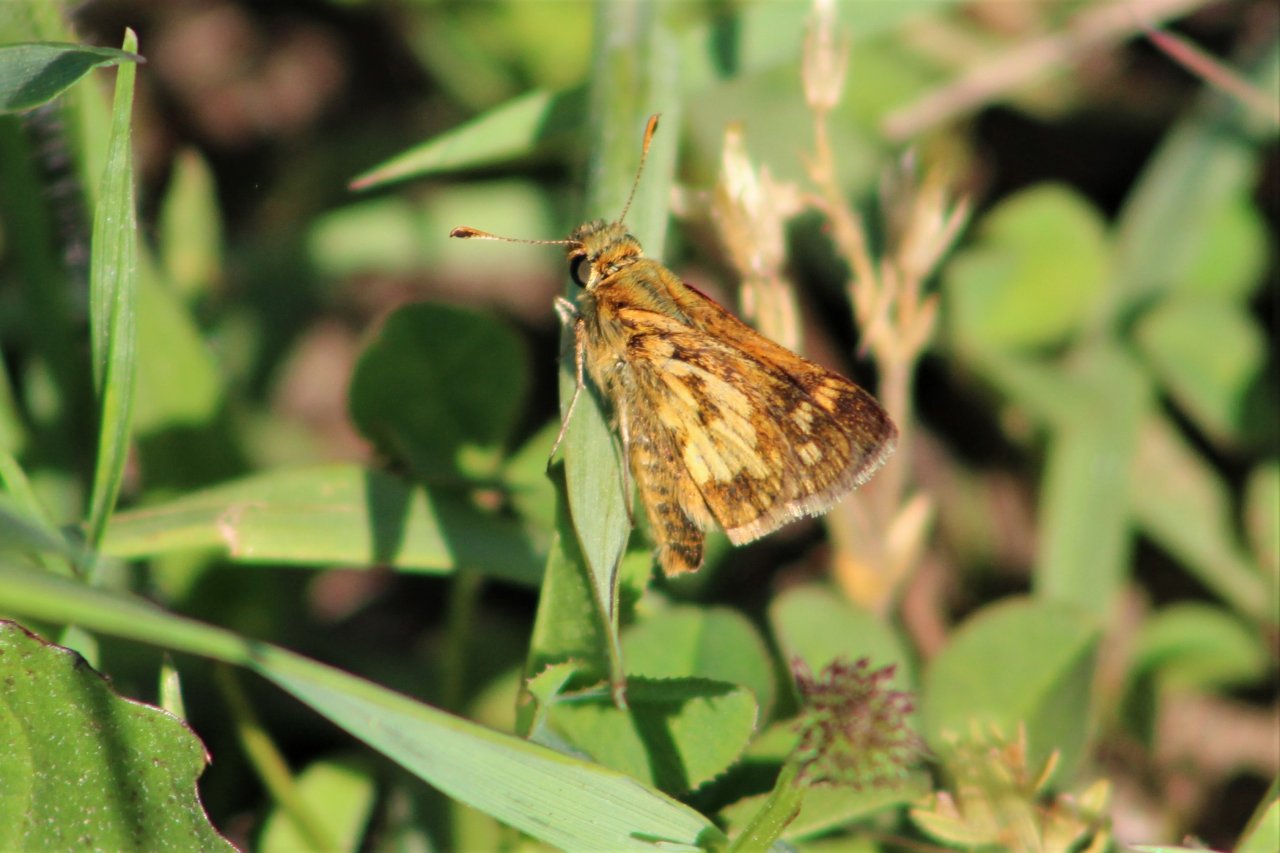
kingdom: Animalia
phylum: Arthropoda
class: Insecta
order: Lepidoptera
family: Hesperiidae
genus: Lon
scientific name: Lon zabulon
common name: Zabulon Skipper
